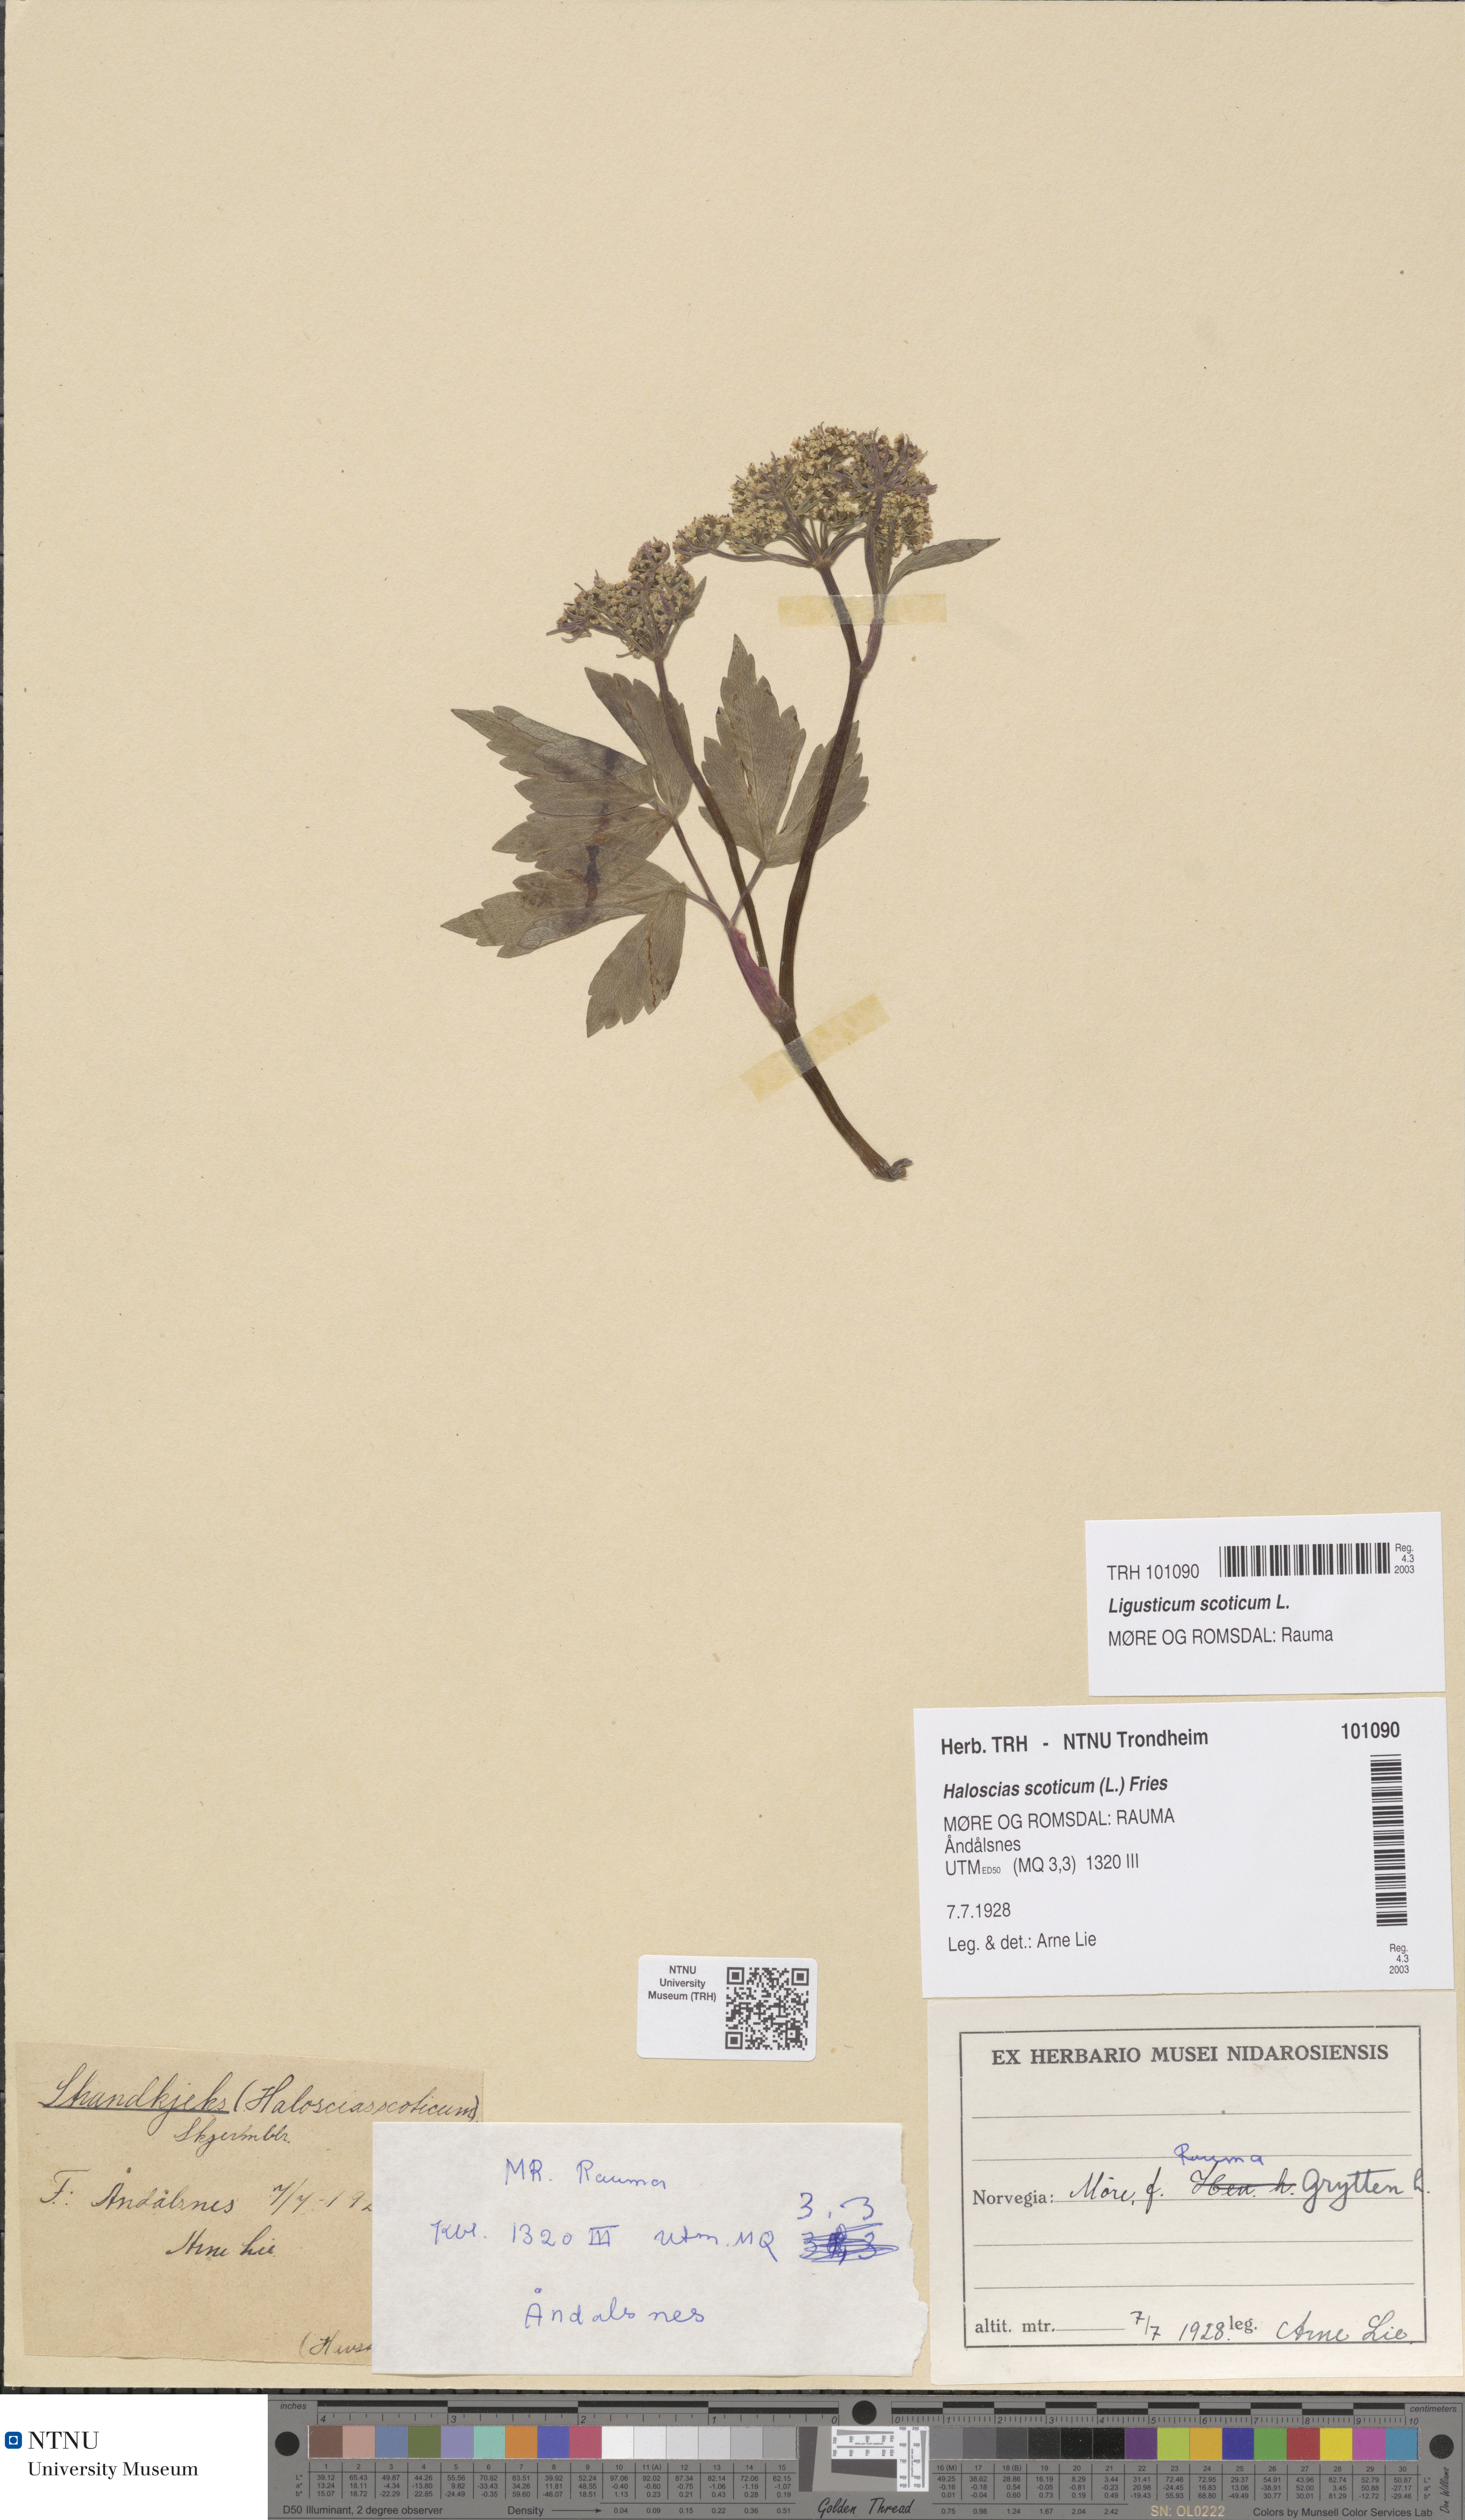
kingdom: Plantae
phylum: Tracheophyta
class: Magnoliopsida
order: Apiales
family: Apiaceae
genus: Ligusticum
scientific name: Ligusticum scothicum
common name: Beach lovage
